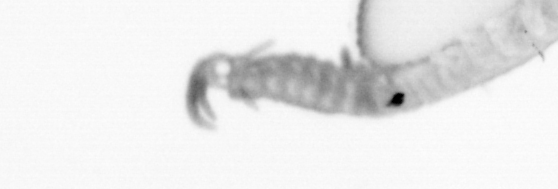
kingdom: Animalia
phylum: Annelida
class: Polychaeta
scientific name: Polychaeta
